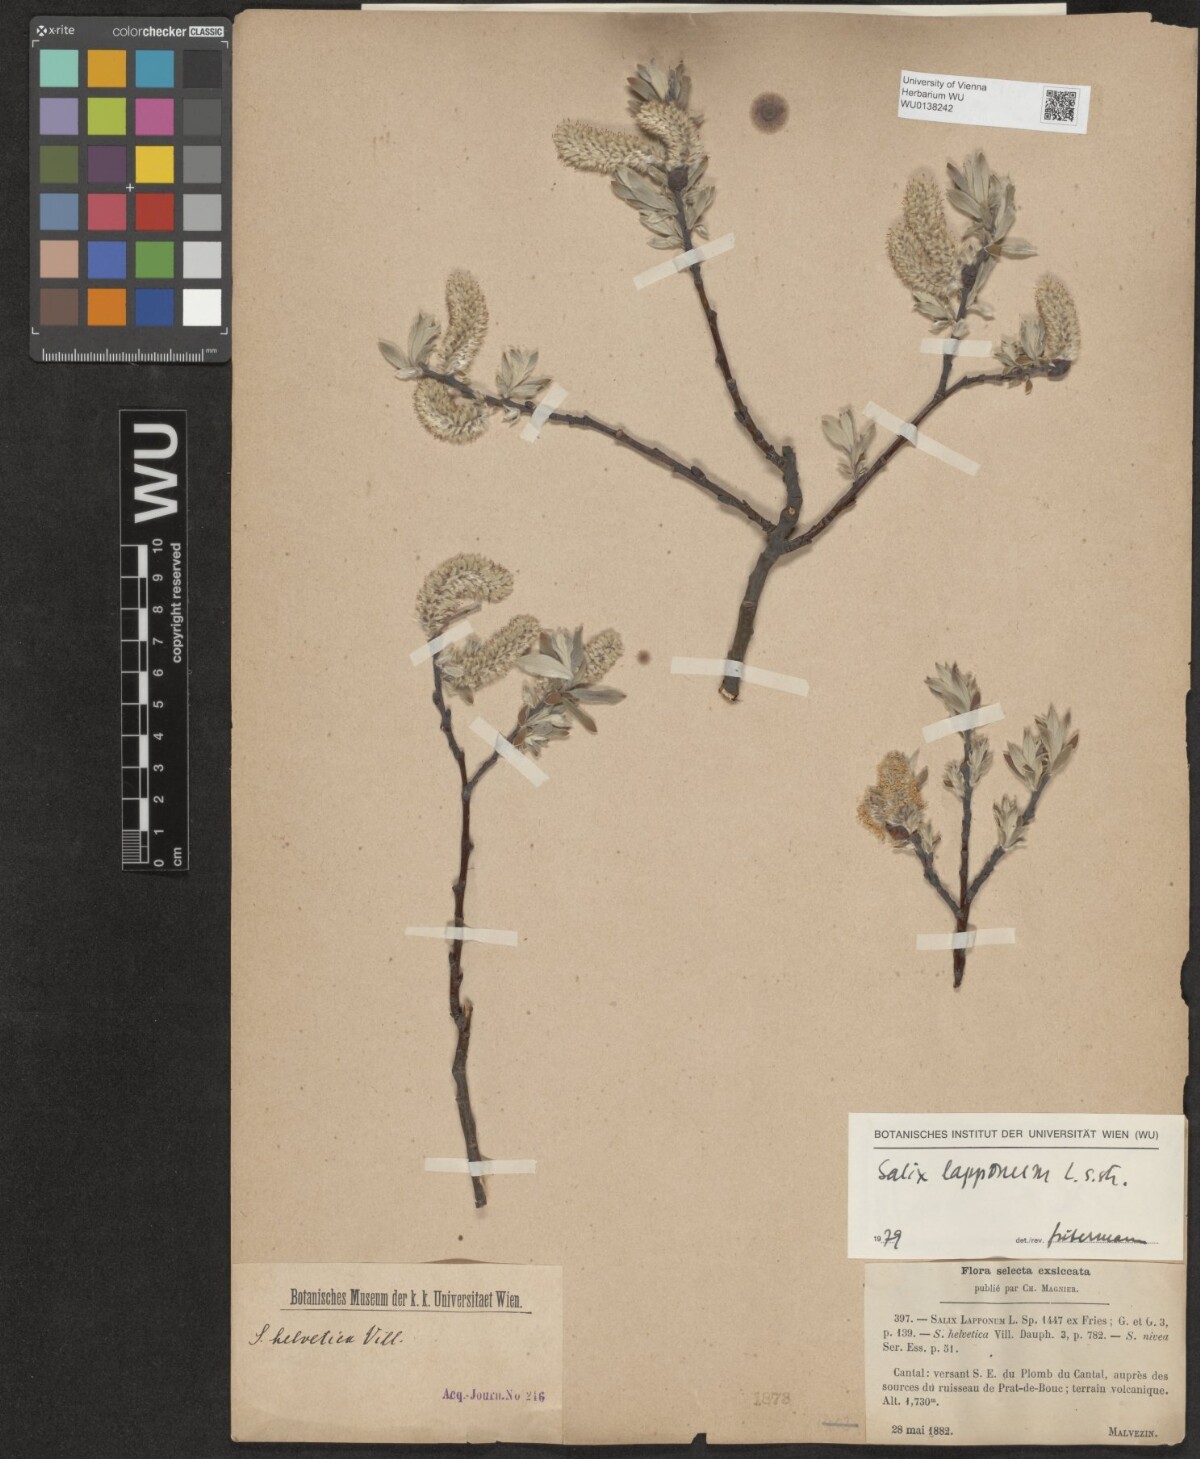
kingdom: Plantae
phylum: Tracheophyta
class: Magnoliopsida
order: Malpighiales
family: Salicaceae
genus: Salix
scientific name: Salix lapponum
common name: Downy willow
